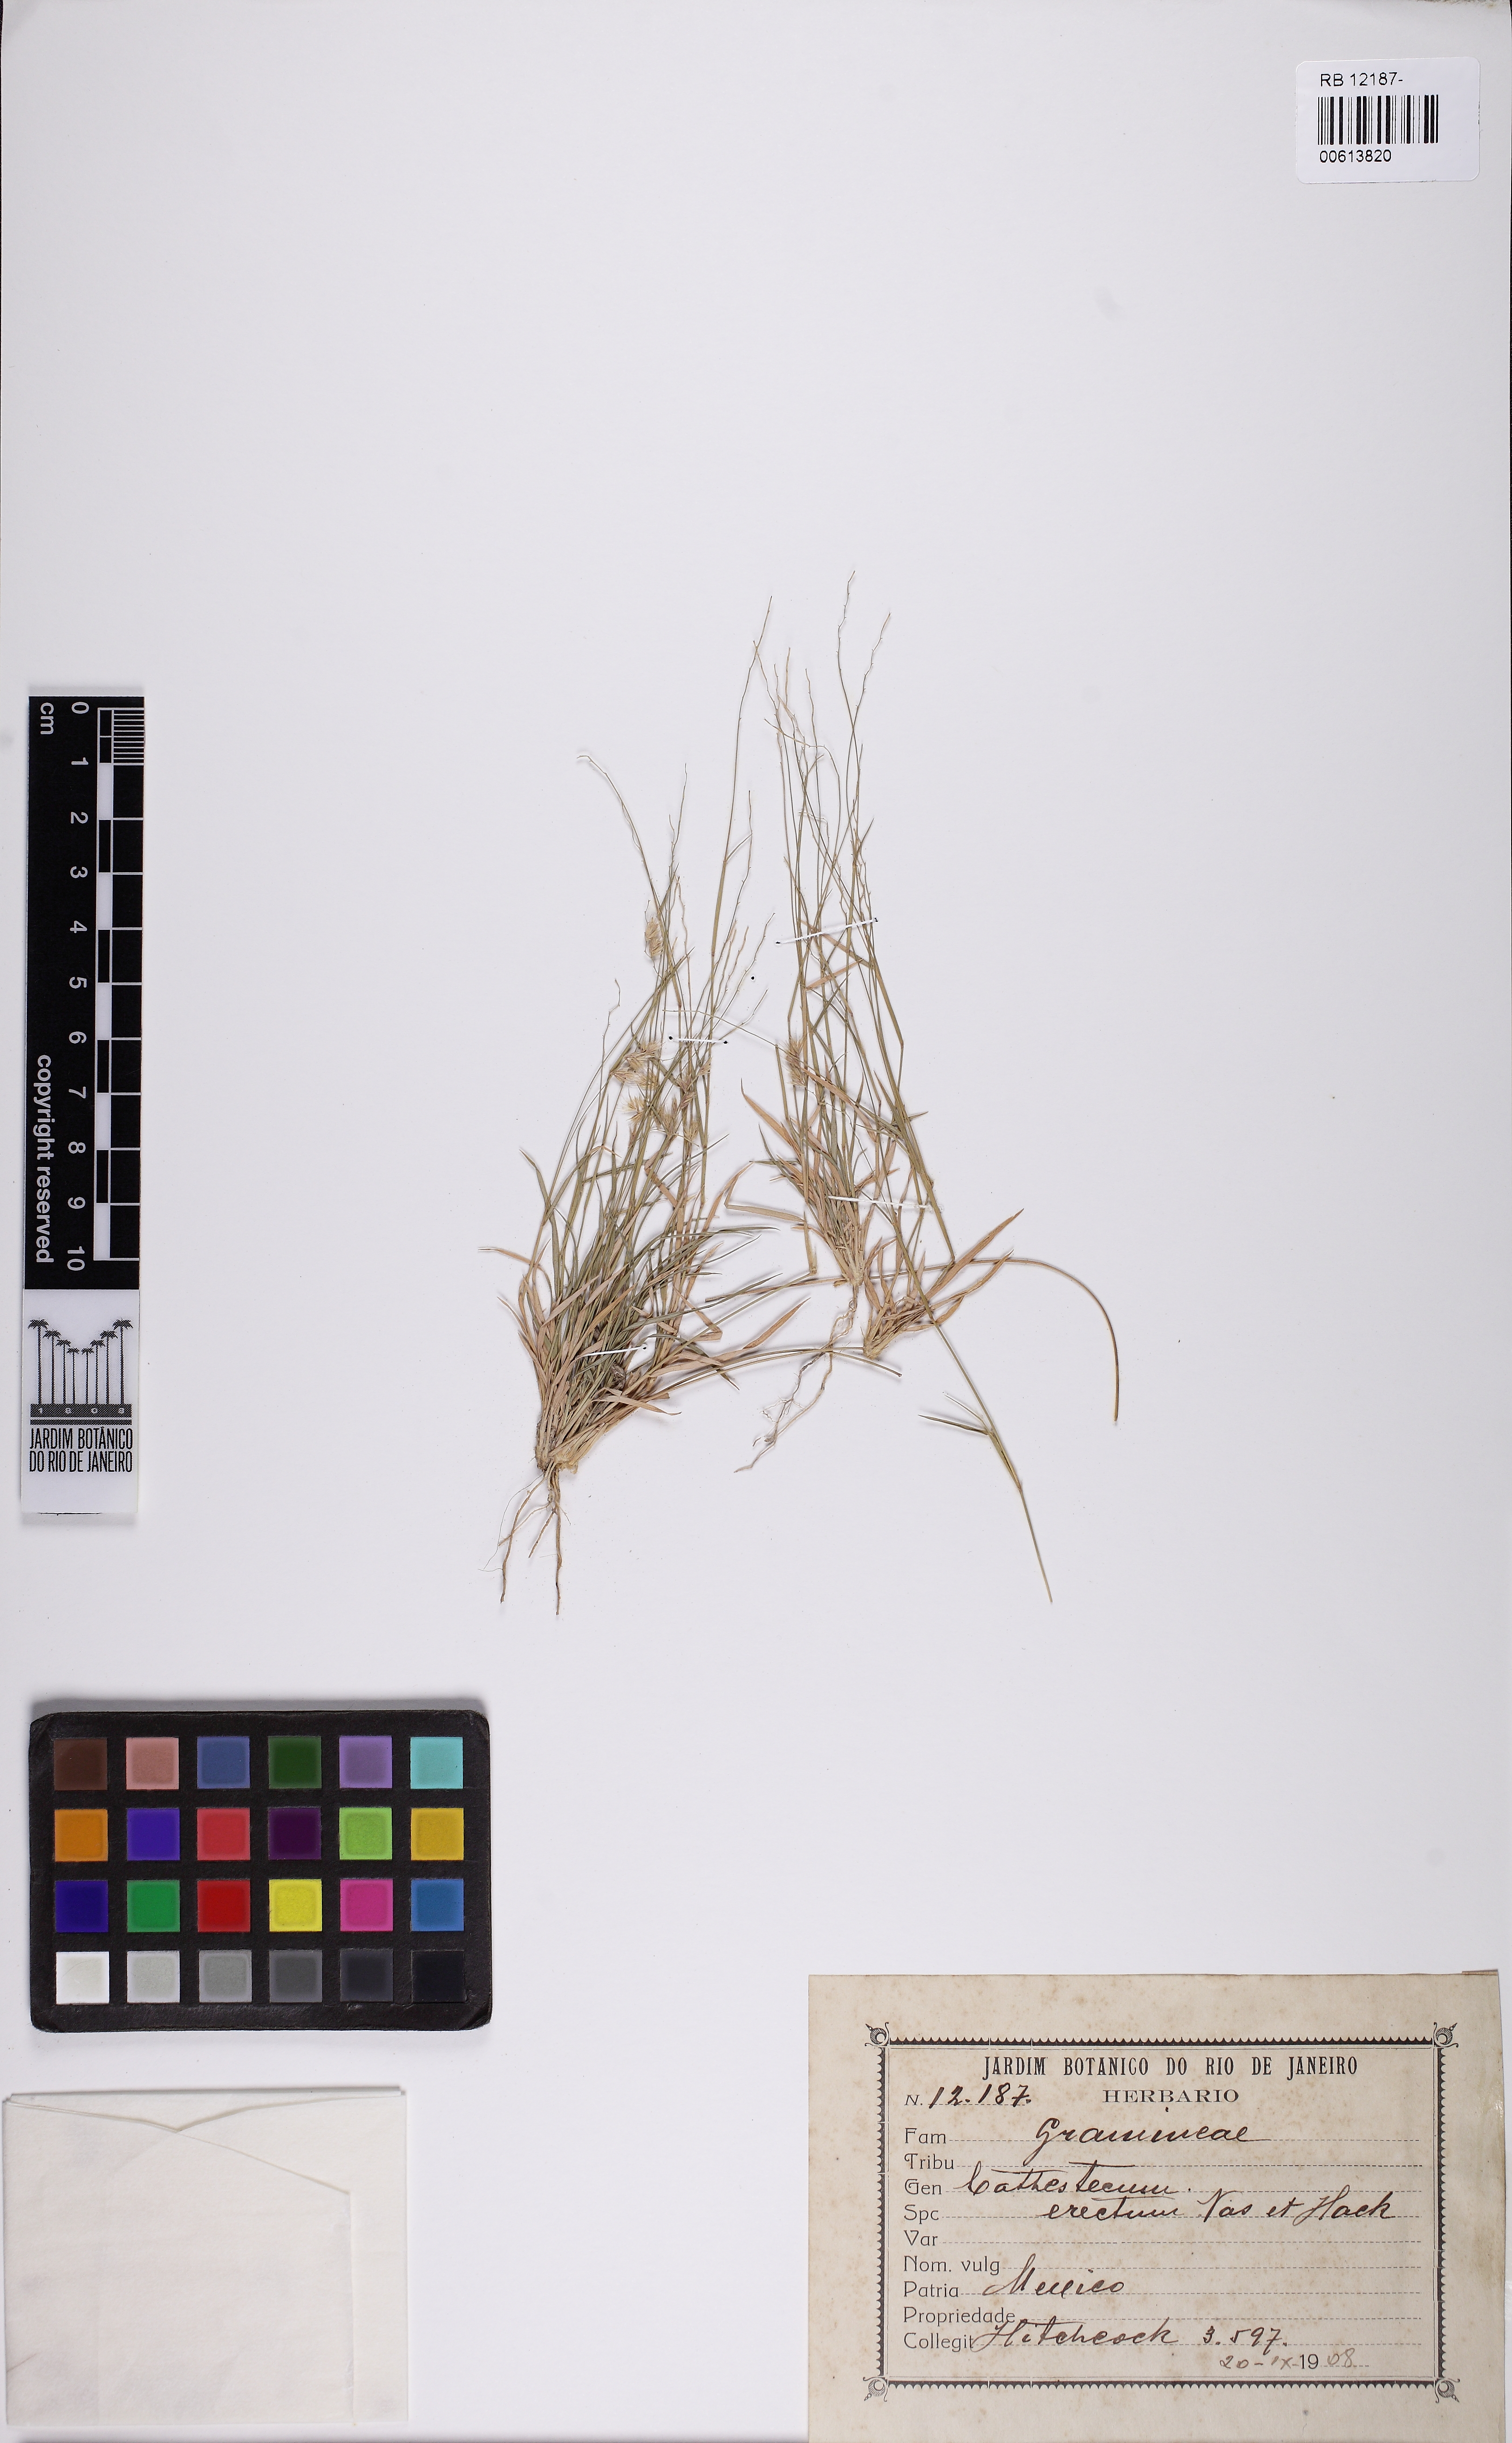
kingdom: Plantae
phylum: Tracheophyta
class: Liliopsida
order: Poales
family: Poaceae
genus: Bouteloua
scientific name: Bouteloua erecta
